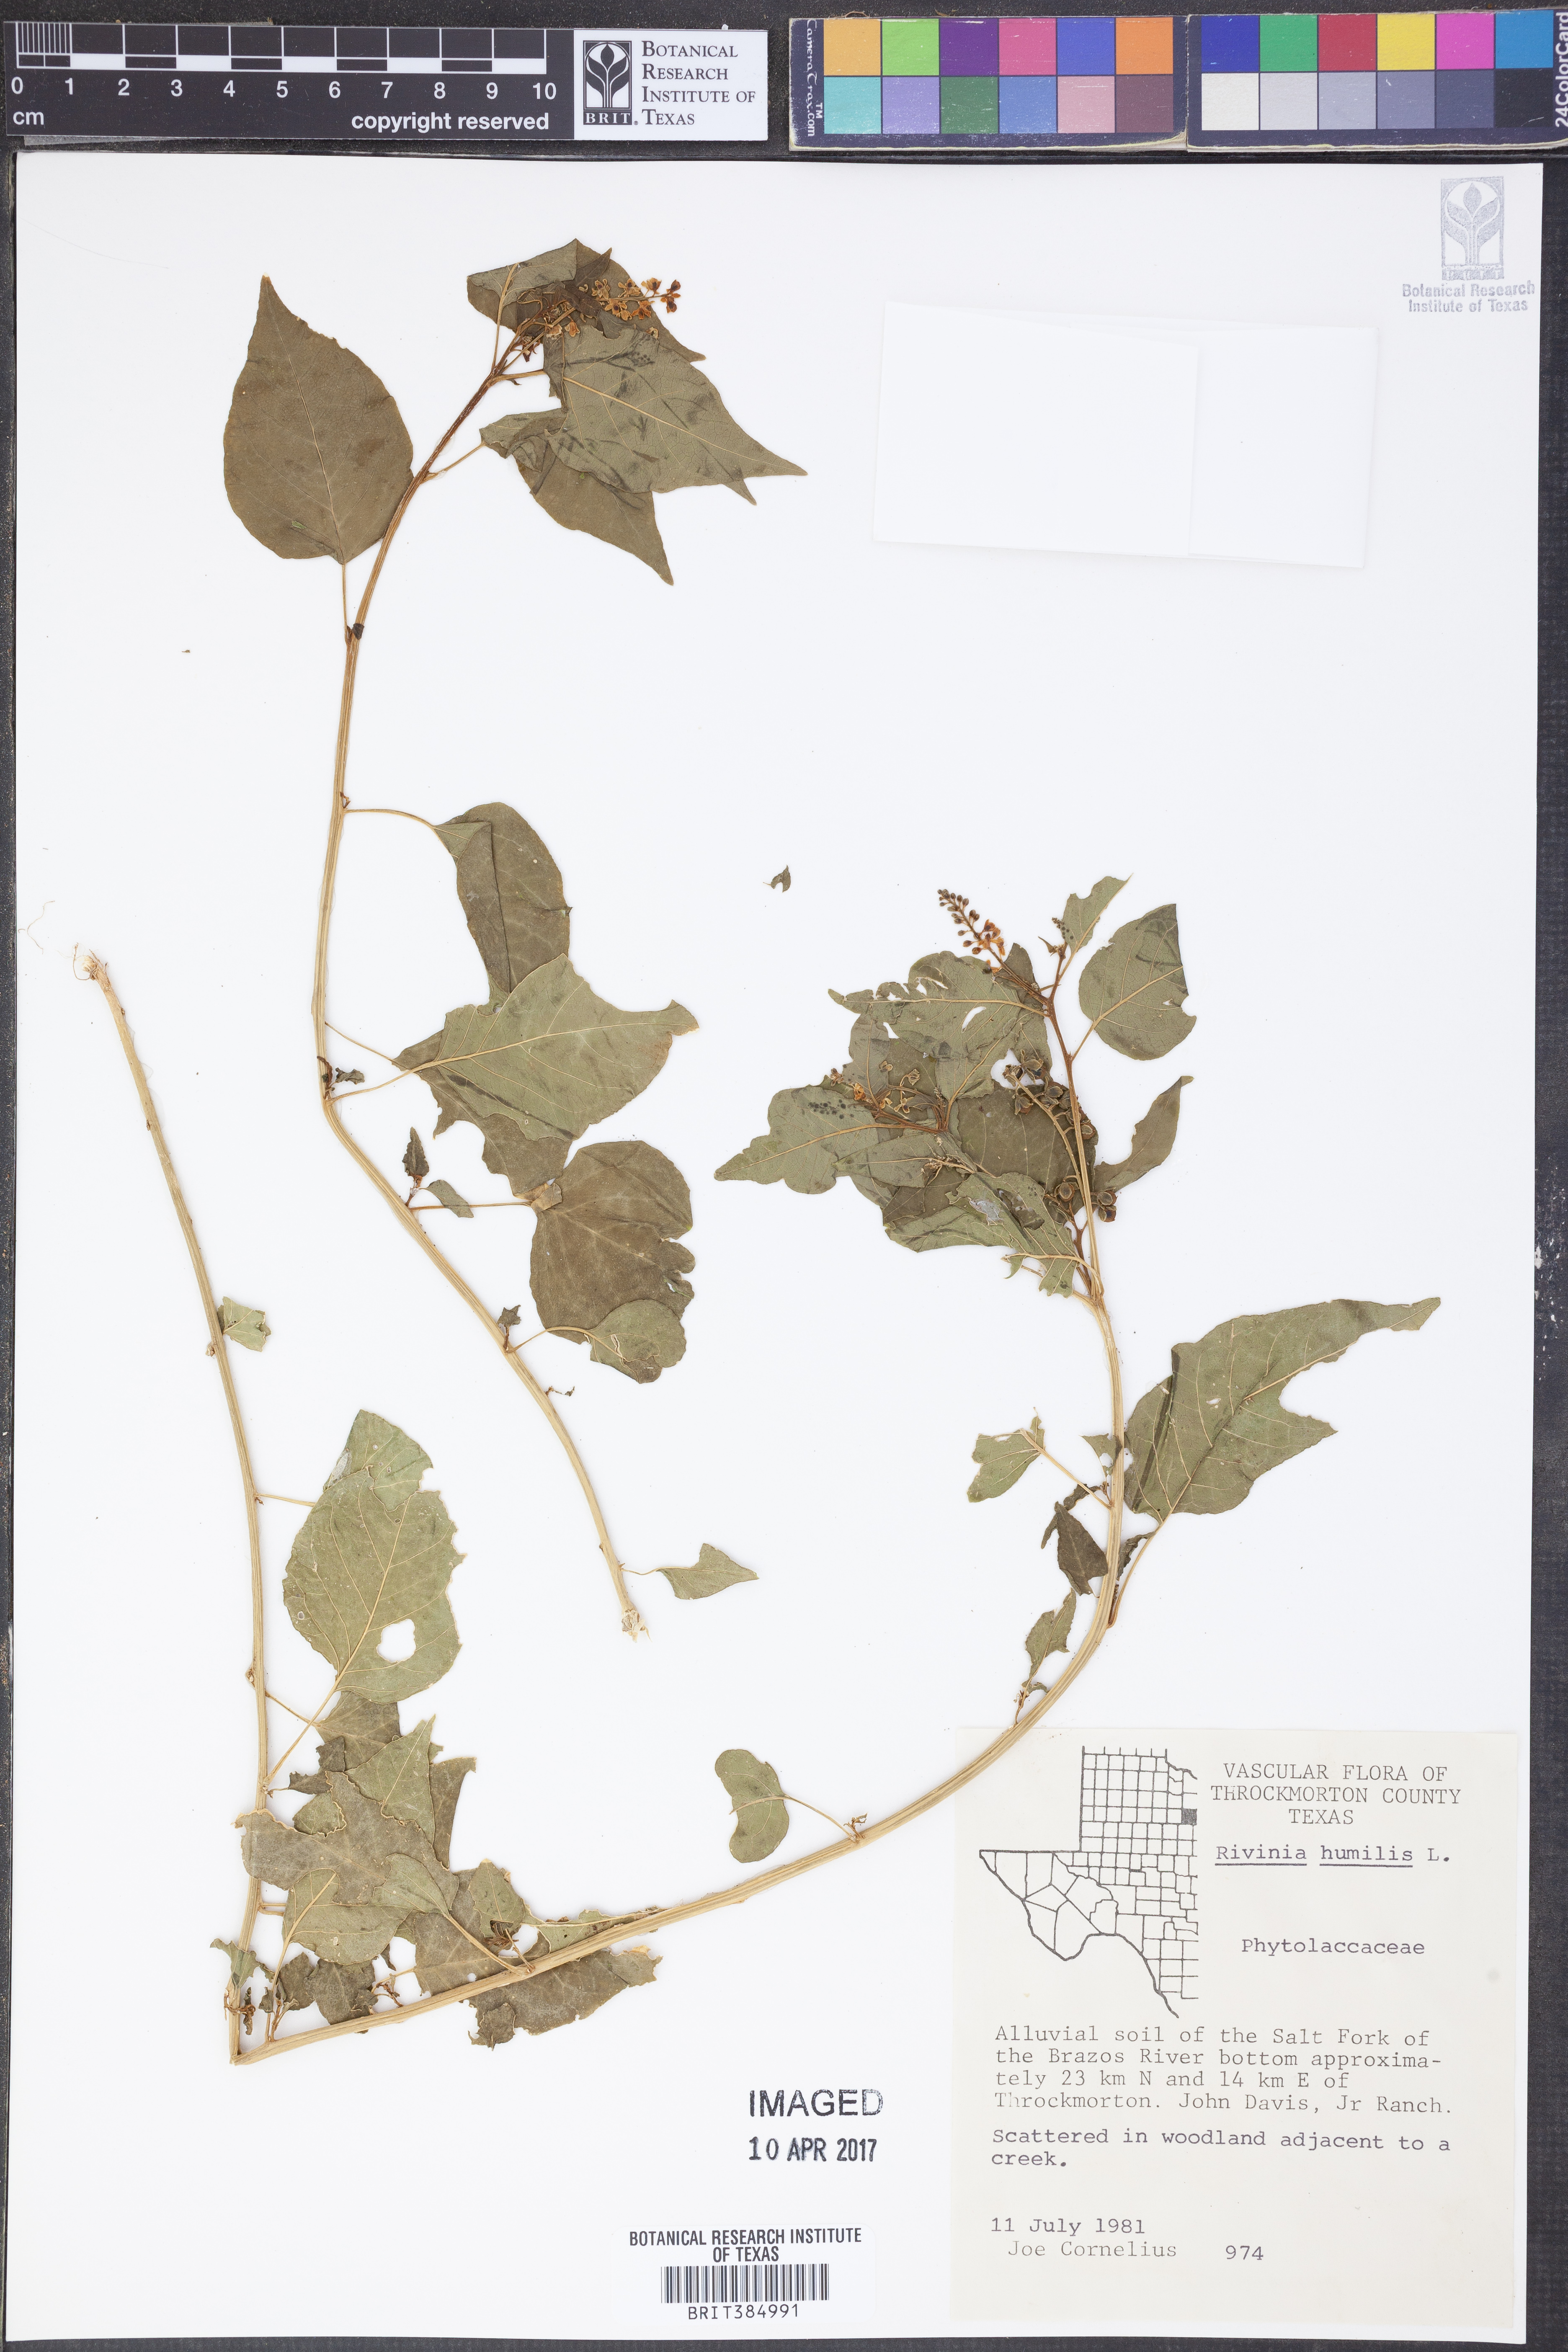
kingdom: Plantae
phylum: Tracheophyta
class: Magnoliopsida
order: Caryophyllales
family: Phytolaccaceae
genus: Rivina
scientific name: Rivina humilis
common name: Rougeplant
